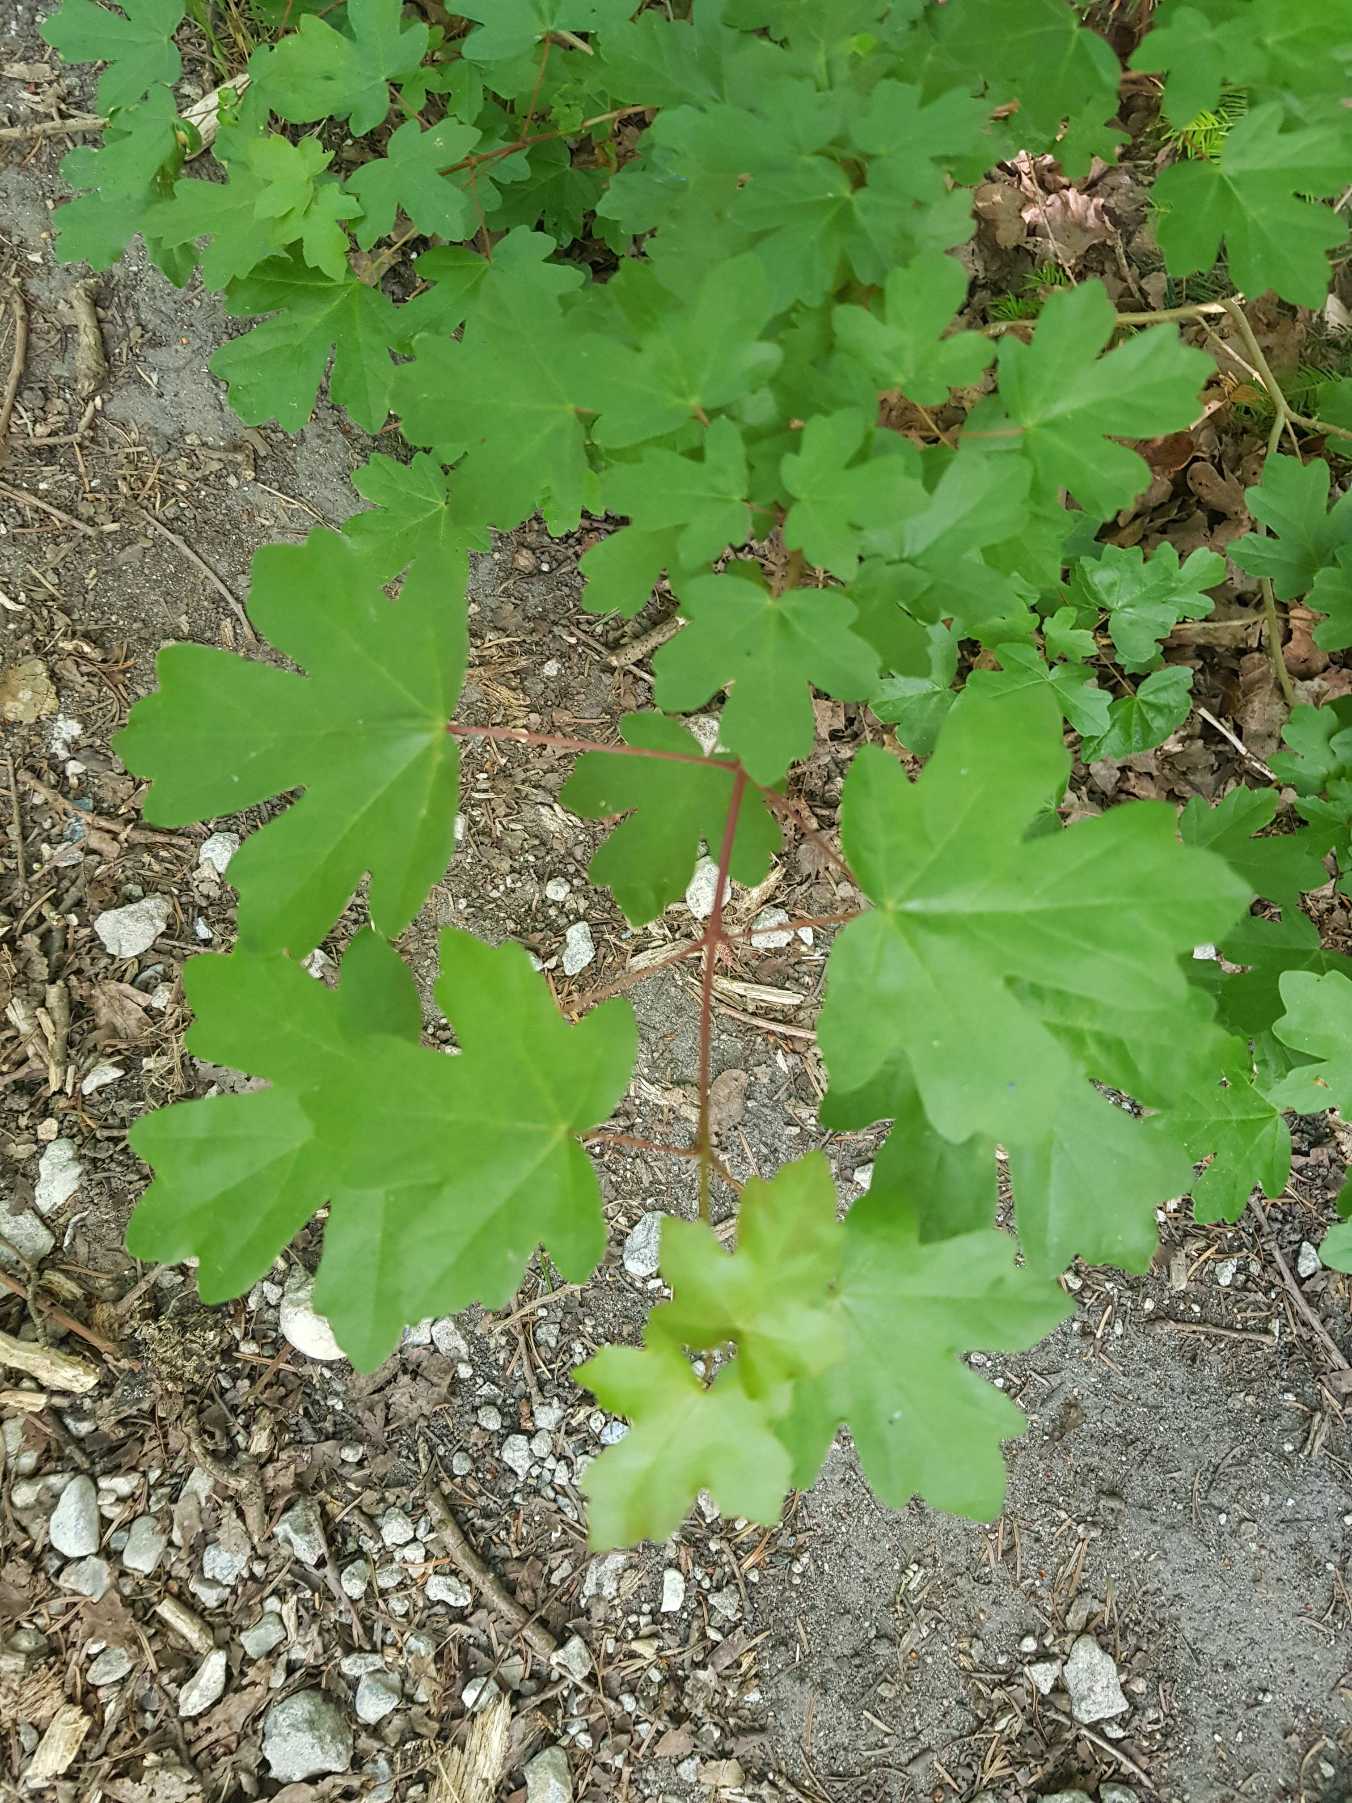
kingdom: Plantae
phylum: Tracheophyta
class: Magnoliopsida
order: Sapindales
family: Sapindaceae
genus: Acer
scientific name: Acer campestre
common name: Navr
